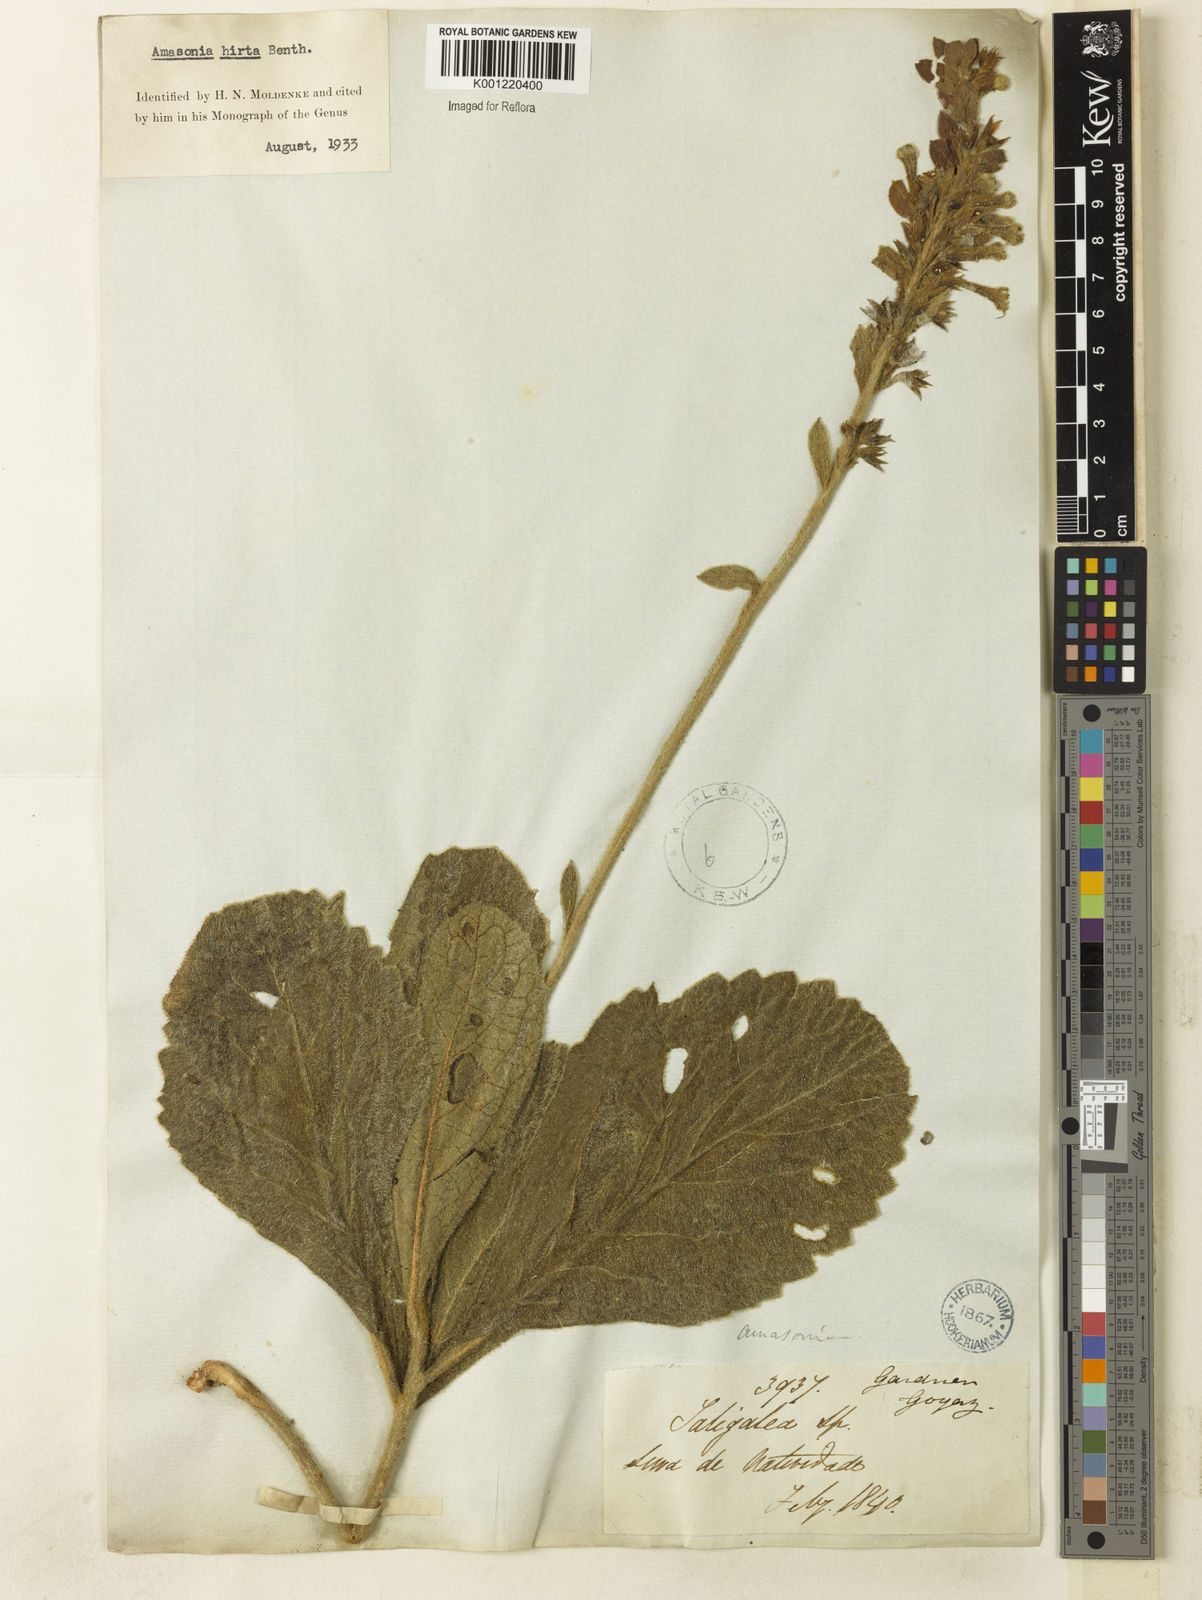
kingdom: Plantae
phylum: Tracheophyta
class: Magnoliopsida
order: Lamiales
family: Lamiaceae
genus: Amasonia
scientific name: Amasonia hirta
